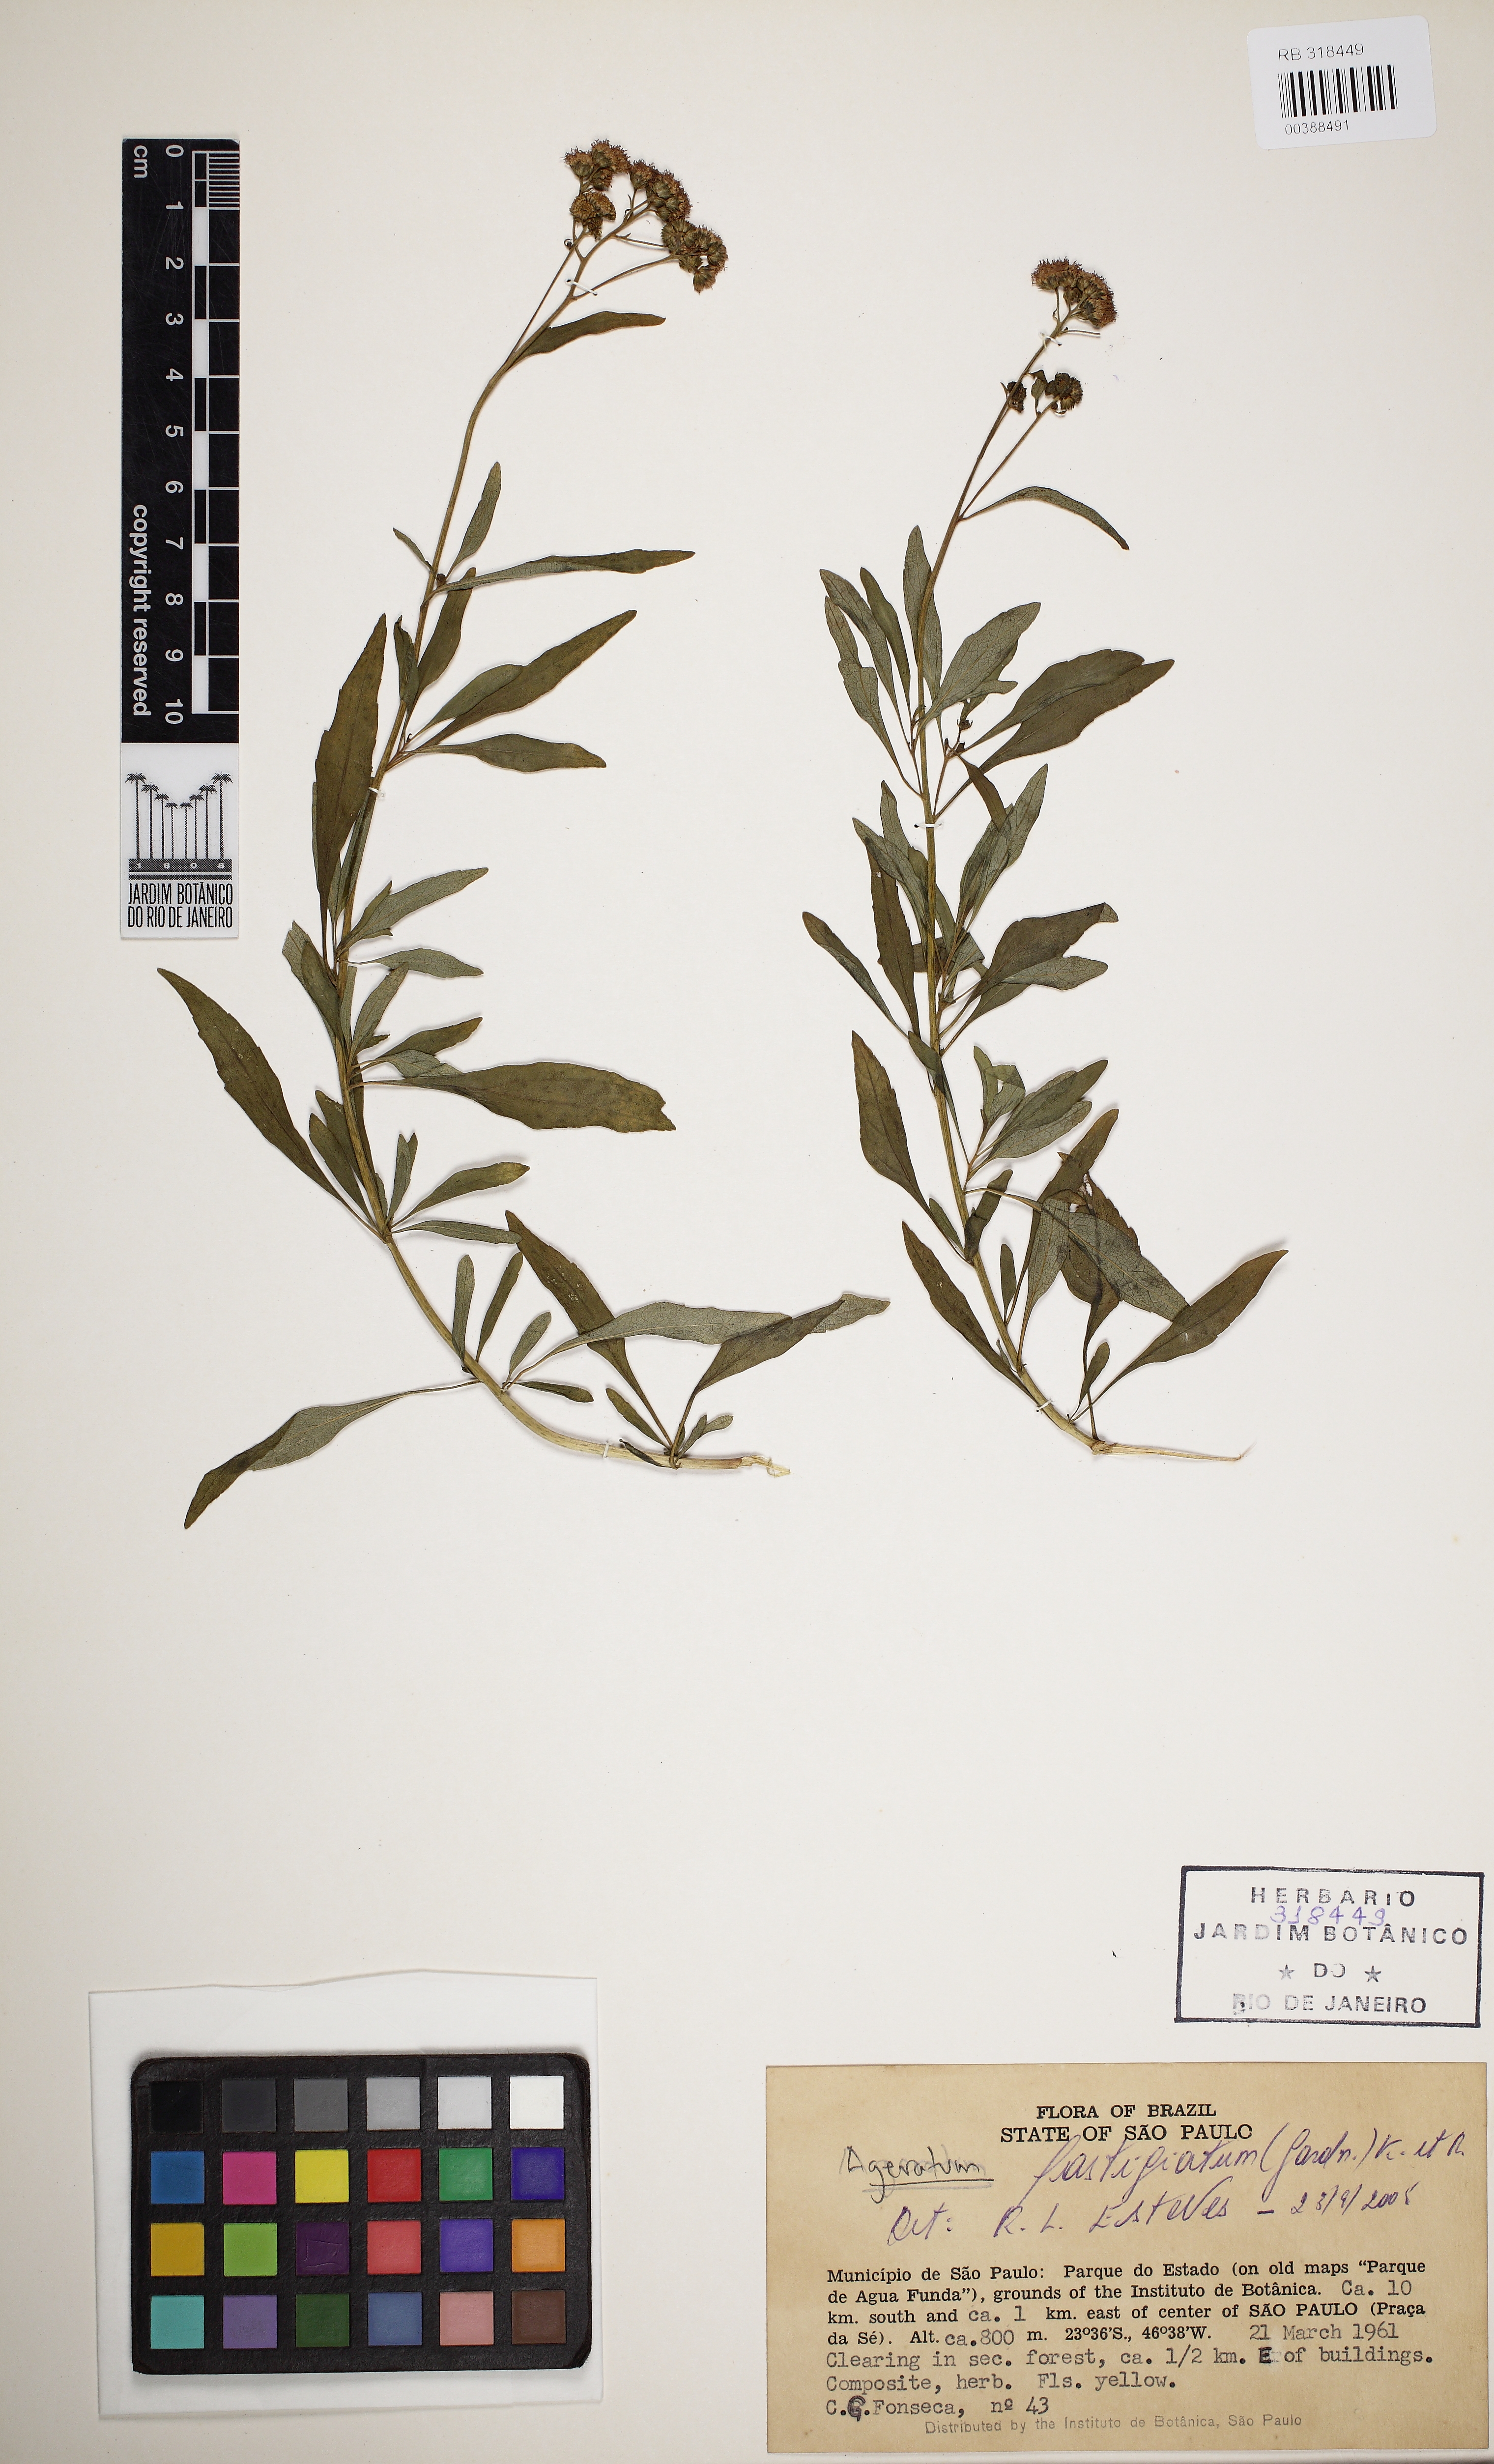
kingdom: Plantae
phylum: Tracheophyta
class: Magnoliopsida
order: Asterales
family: Asteraceae
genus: Ageratum
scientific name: Ageratum
